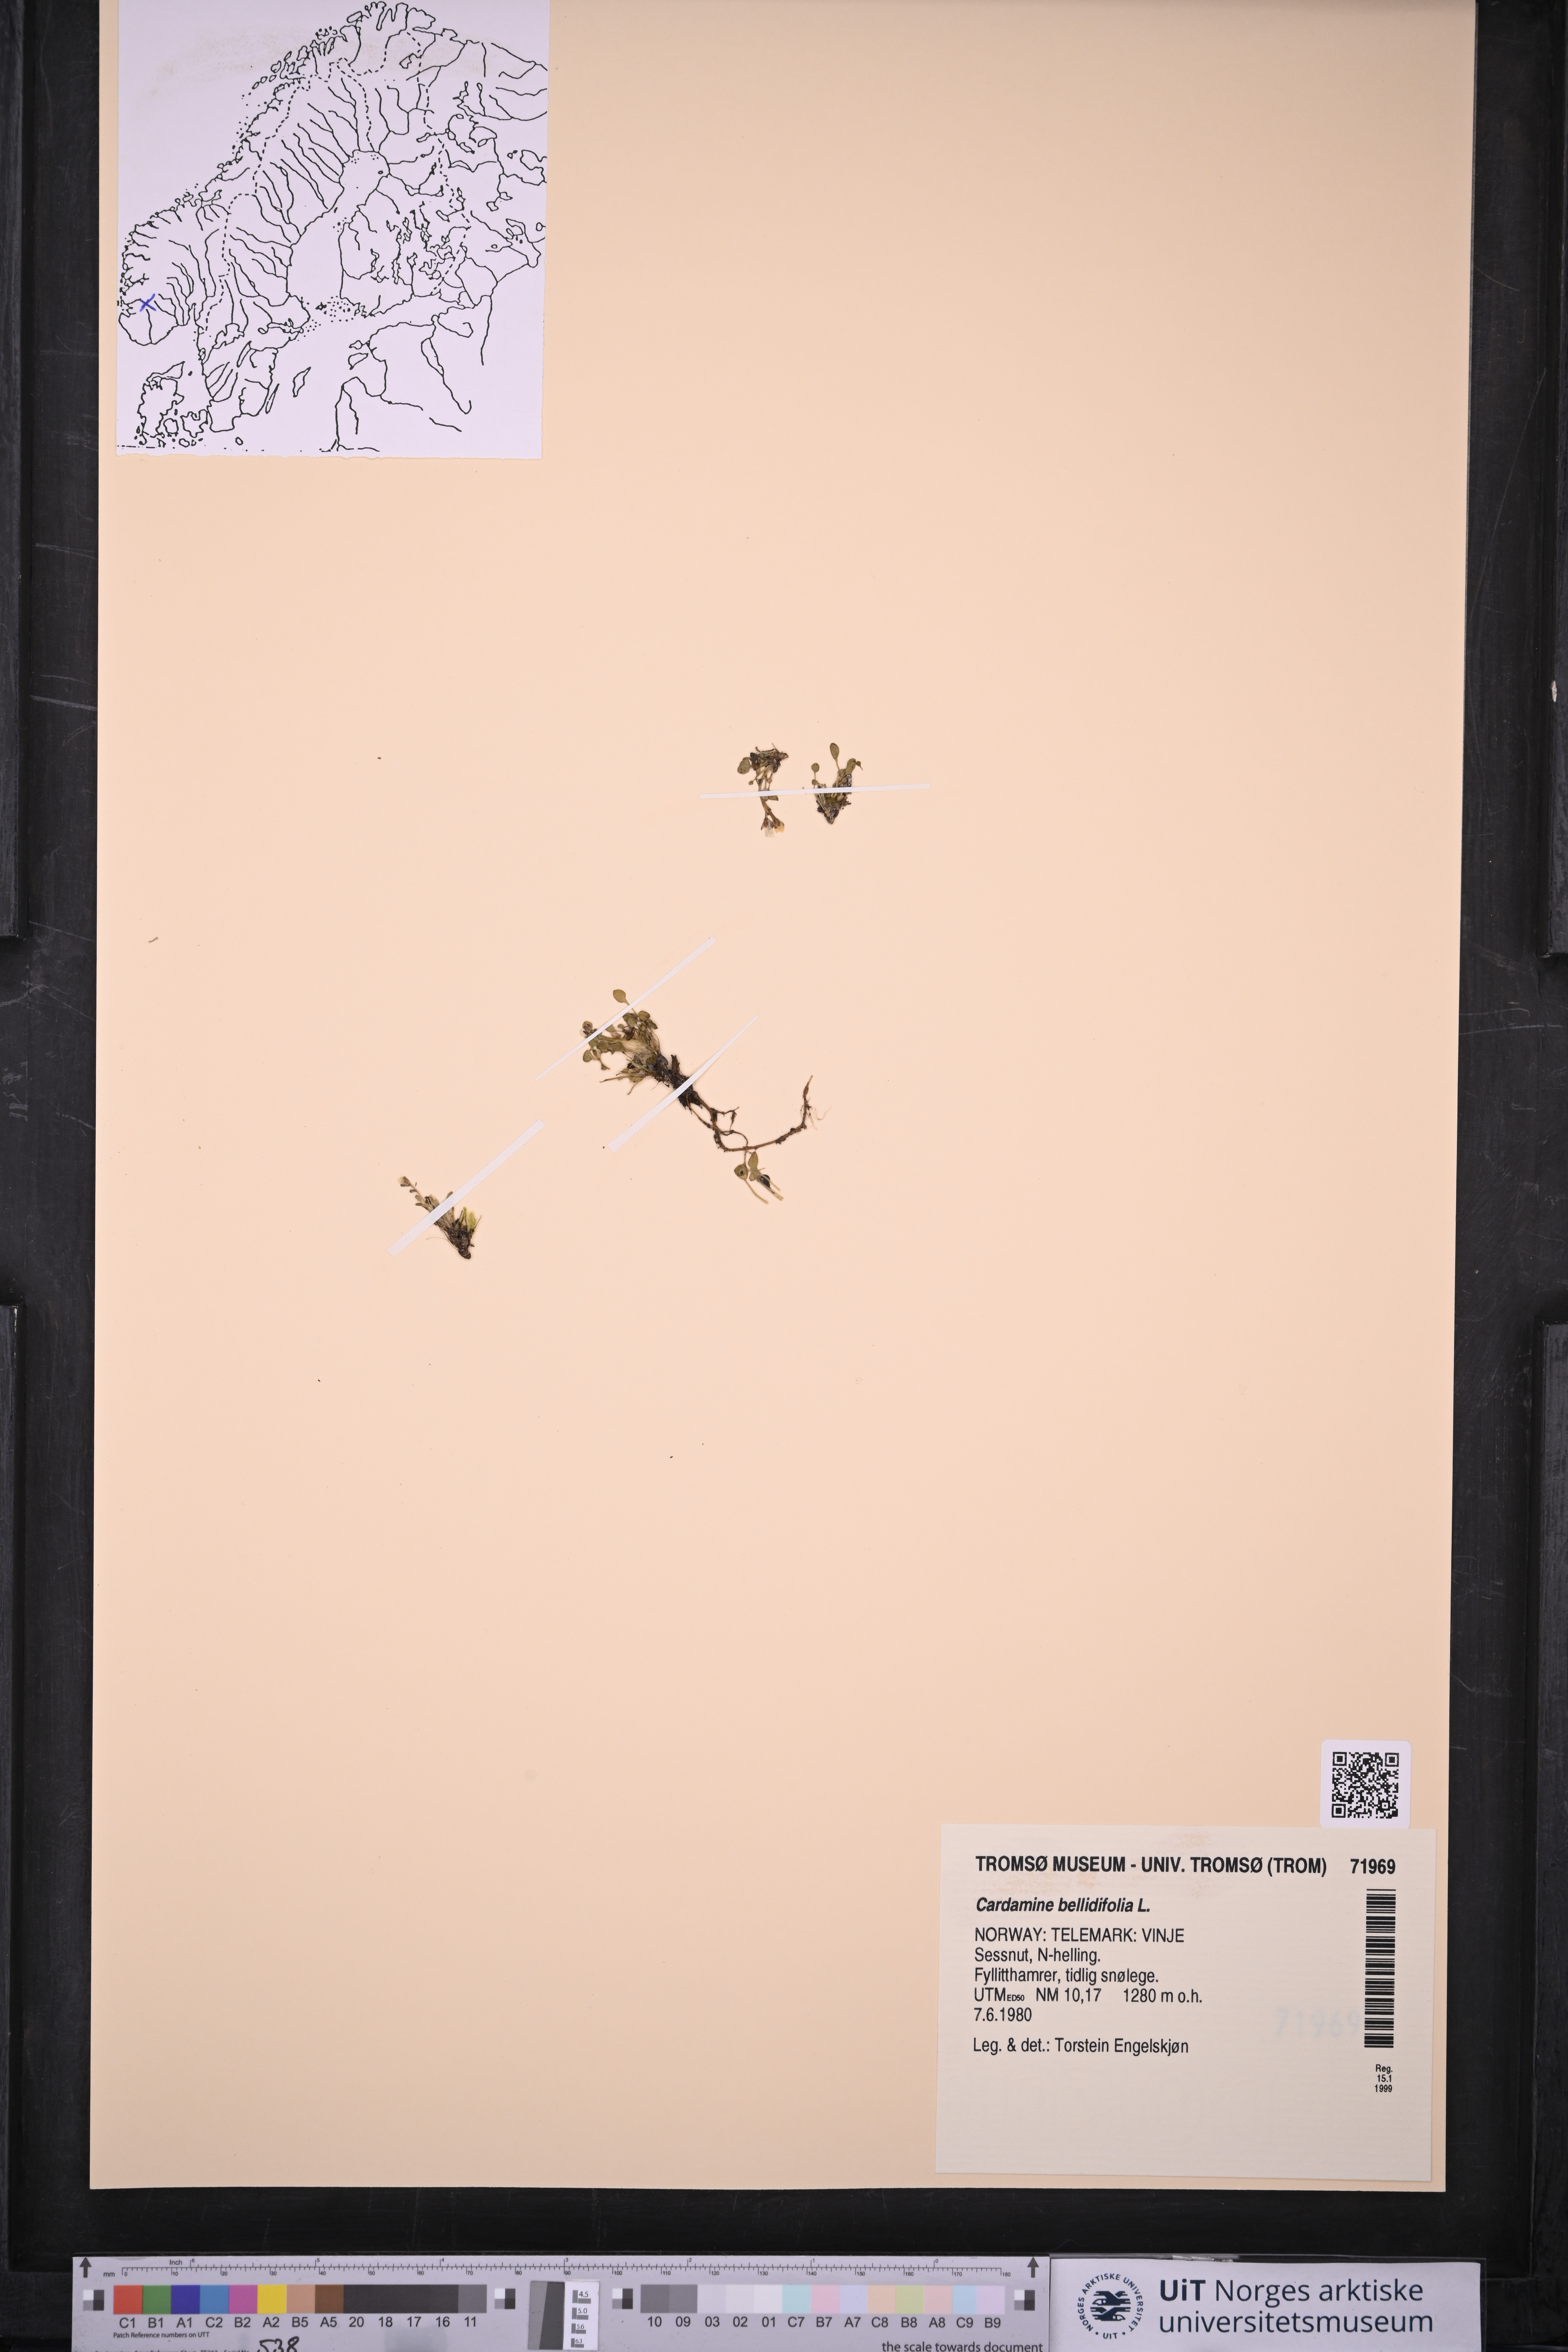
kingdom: Plantae
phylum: Tracheophyta
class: Magnoliopsida
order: Brassicales
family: Brassicaceae
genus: Cardamine
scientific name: Cardamine bellidifolia
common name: Alpine bittercress
